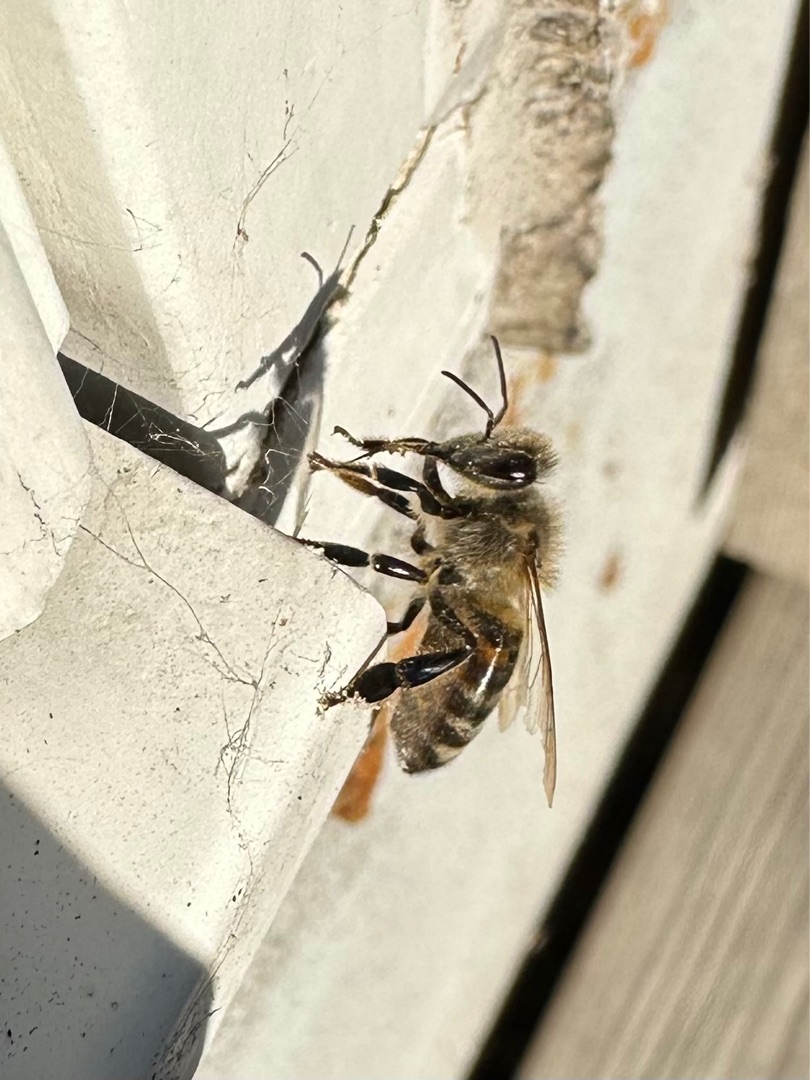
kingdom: Animalia
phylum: Arthropoda
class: Insecta
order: Hymenoptera
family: Apidae
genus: Apis
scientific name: Apis mellifera
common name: Honningbi
